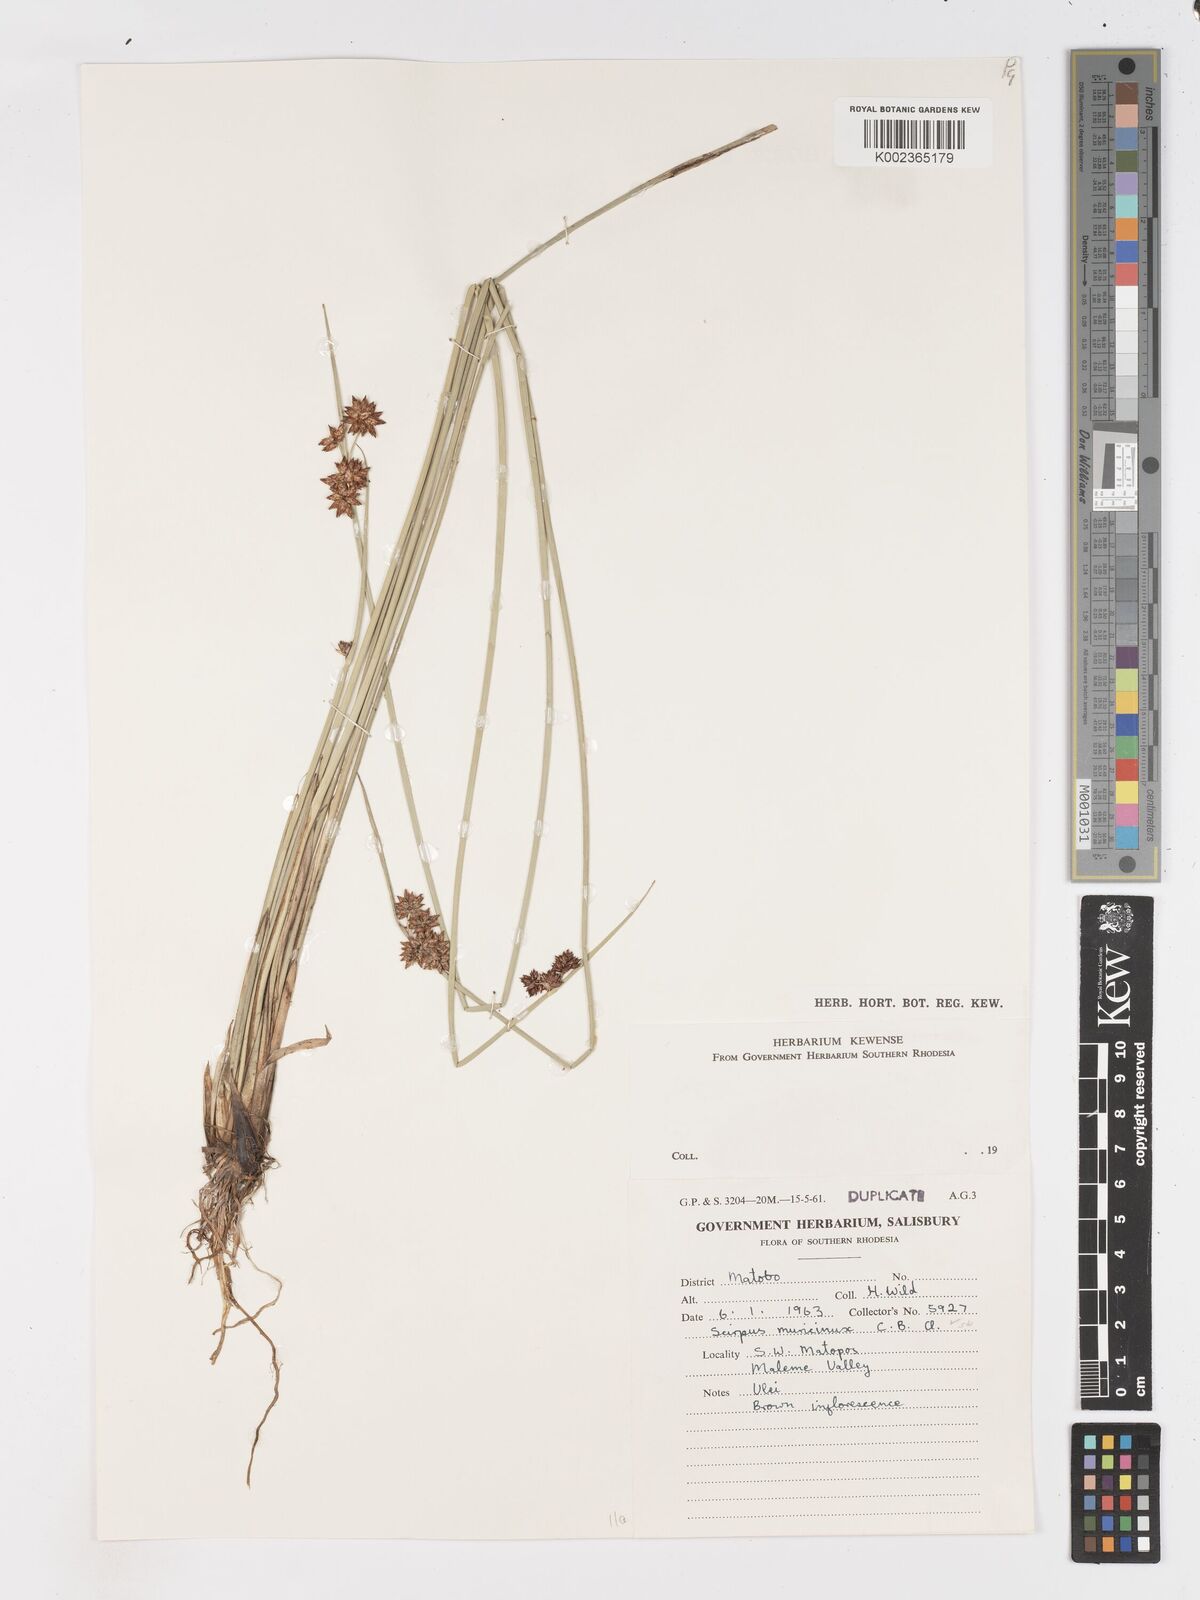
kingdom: Plantae
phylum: Tracheophyta
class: Liliopsida
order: Poales
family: Cyperaceae
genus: Schoenoplectiella
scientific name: Schoenoplectiella muricinux
